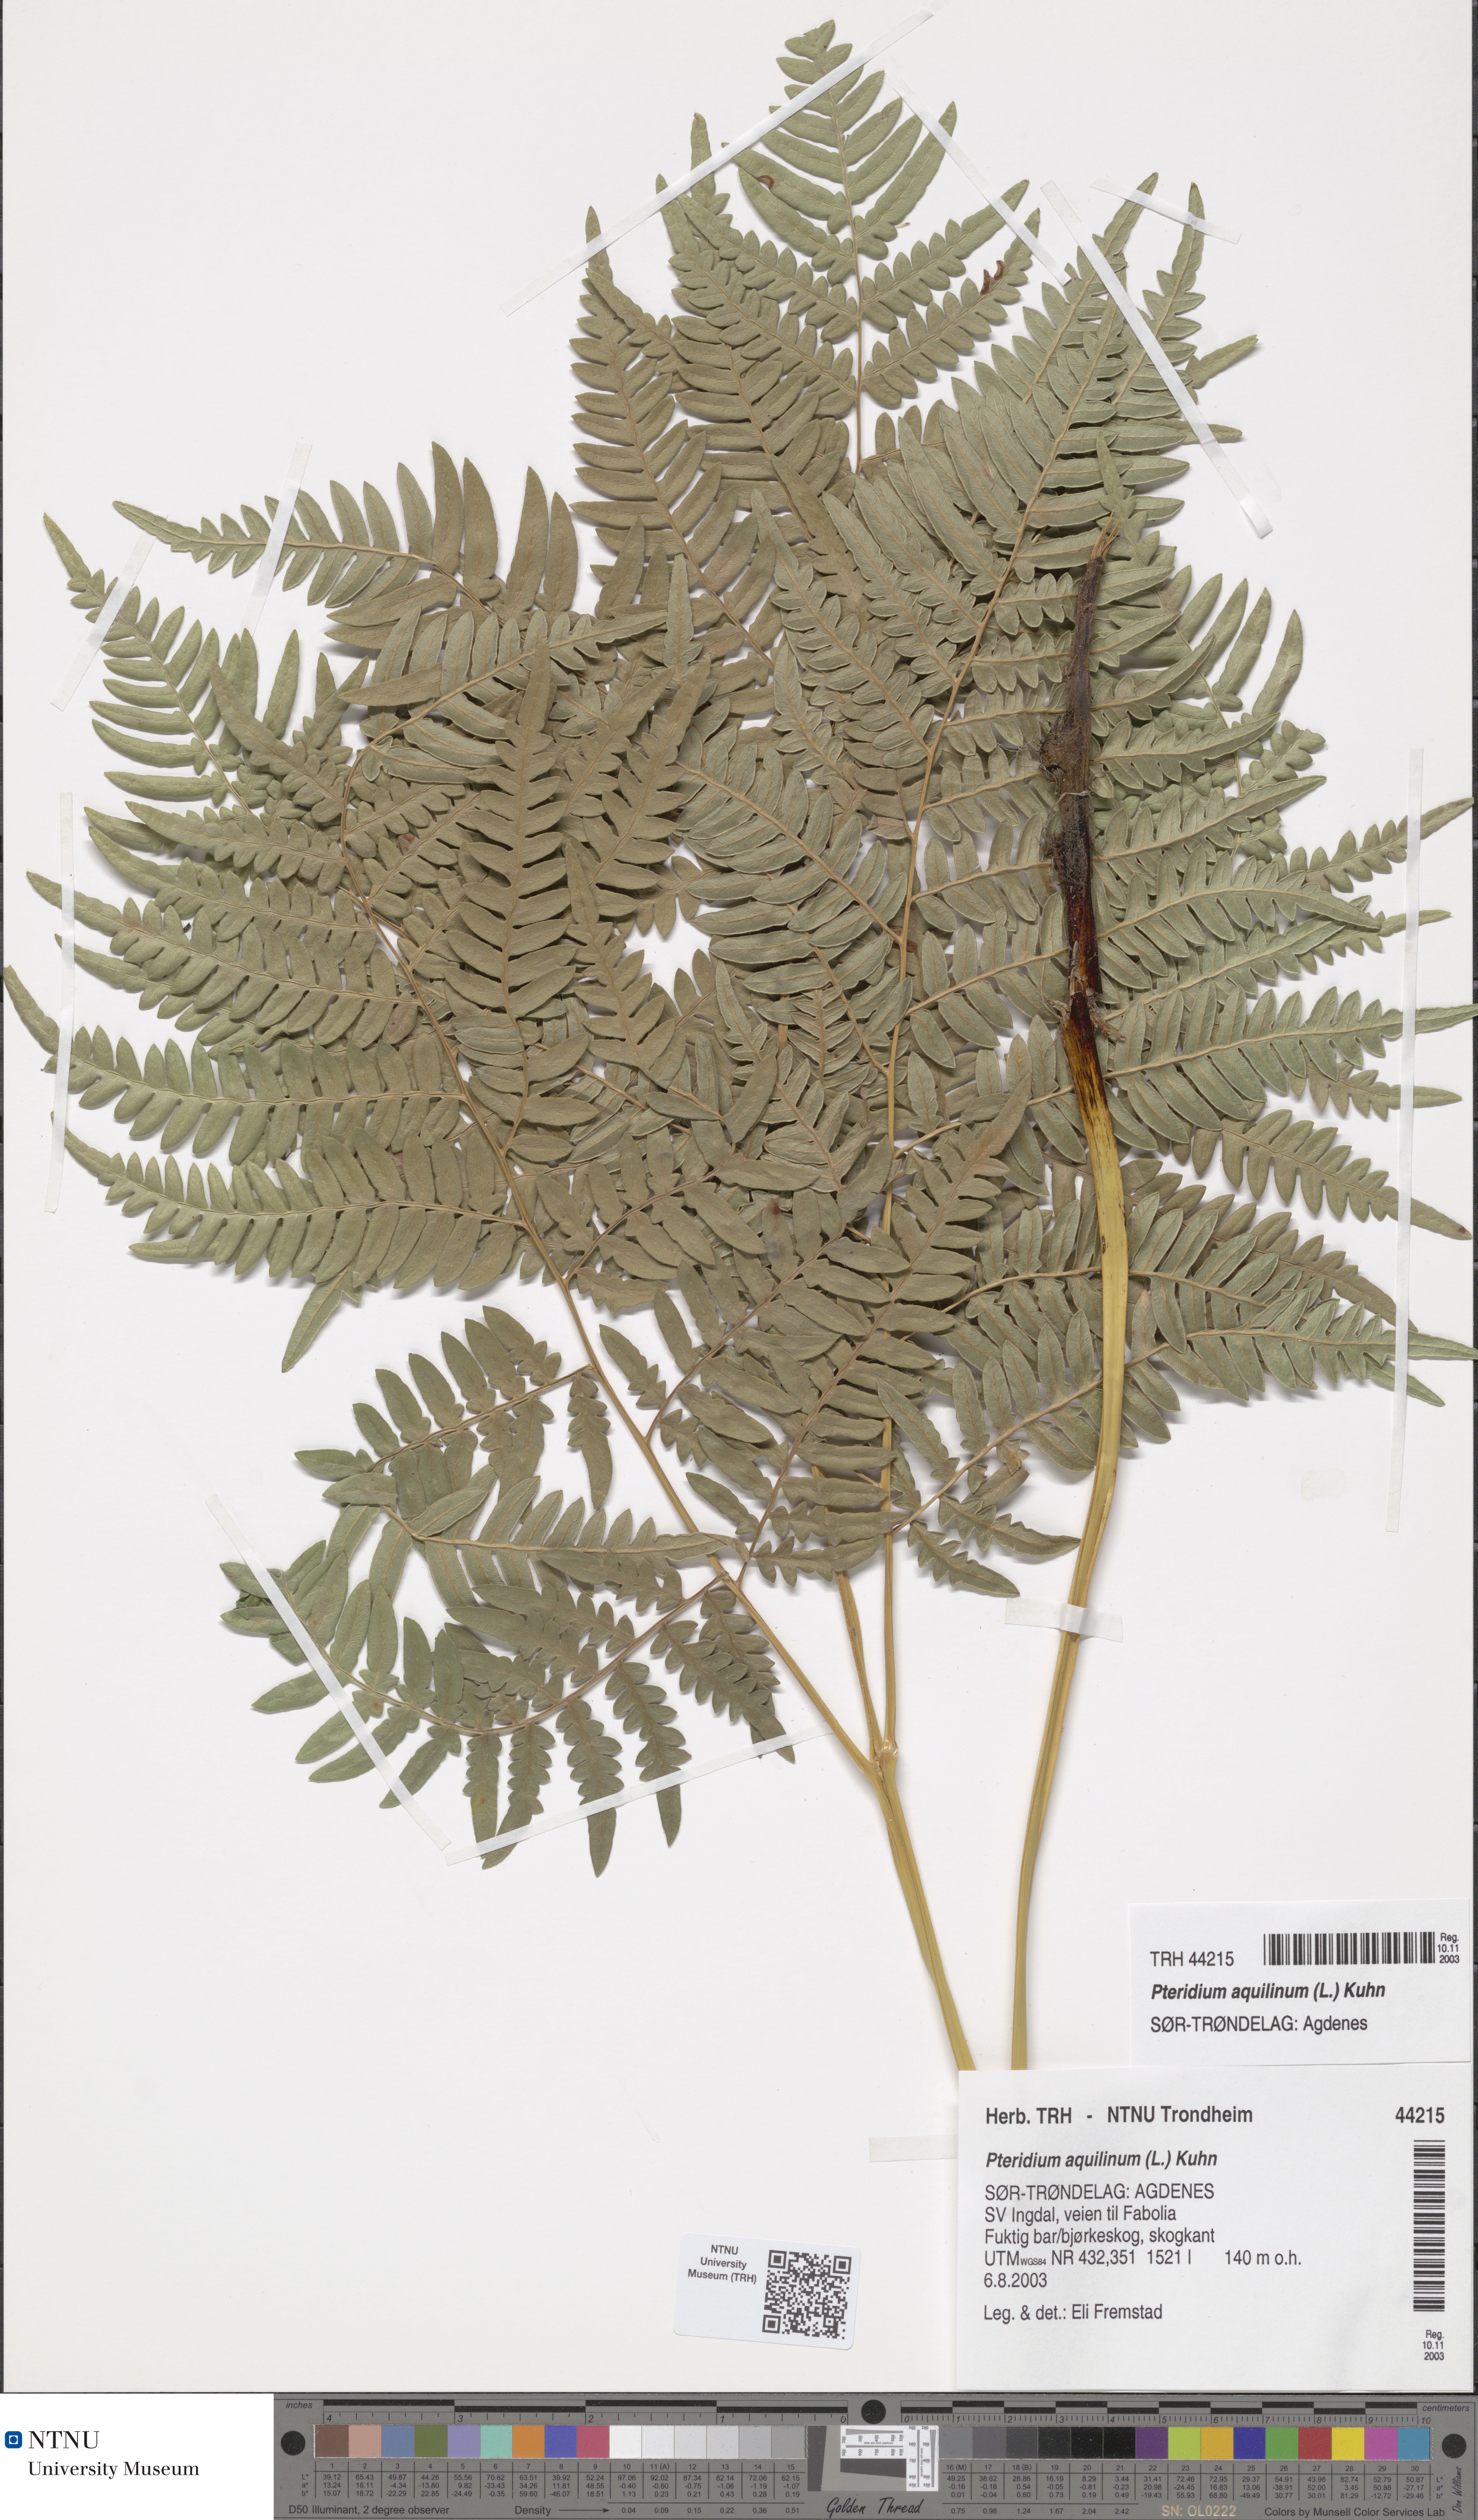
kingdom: Plantae
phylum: Tracheophyta
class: Polypodiopsida
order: Polypodiales
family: Dennstaedtiaceae
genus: Pteridium
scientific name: Pteridium aquilinum
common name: Bracken
